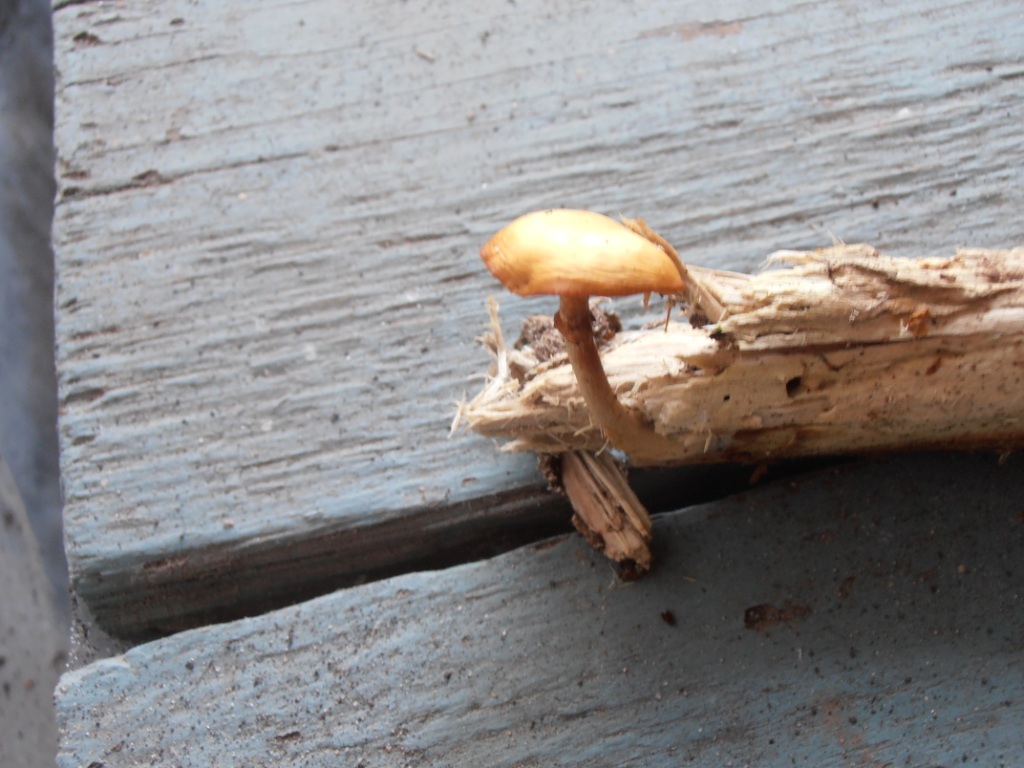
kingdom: Fungi
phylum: Basidiomycota
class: Agaricomycetes
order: Agaricales
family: Hymenogastraceae
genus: Galerina
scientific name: Galerina marginata
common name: randbæltet hjelmhat
